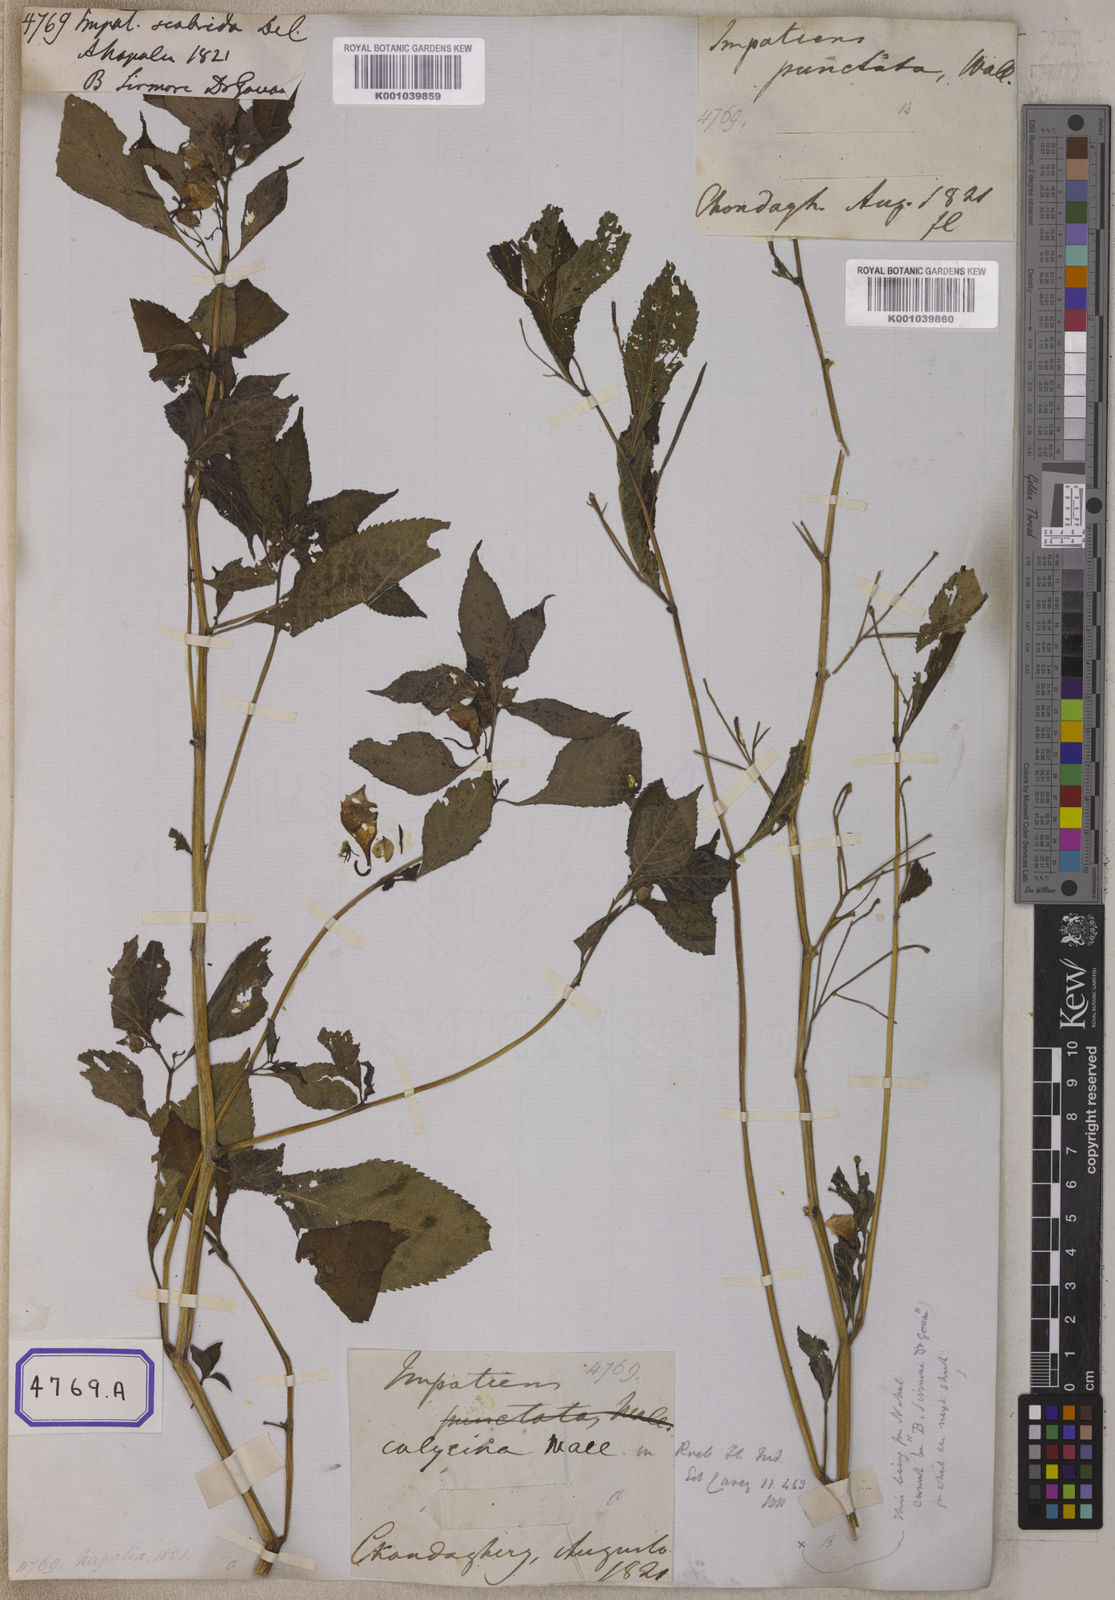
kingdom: Plantae
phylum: Tracheophyta
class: Magnoliopsida
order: Ericales
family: Balsaminaceae
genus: Impatiens
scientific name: Impatiens scabrida
